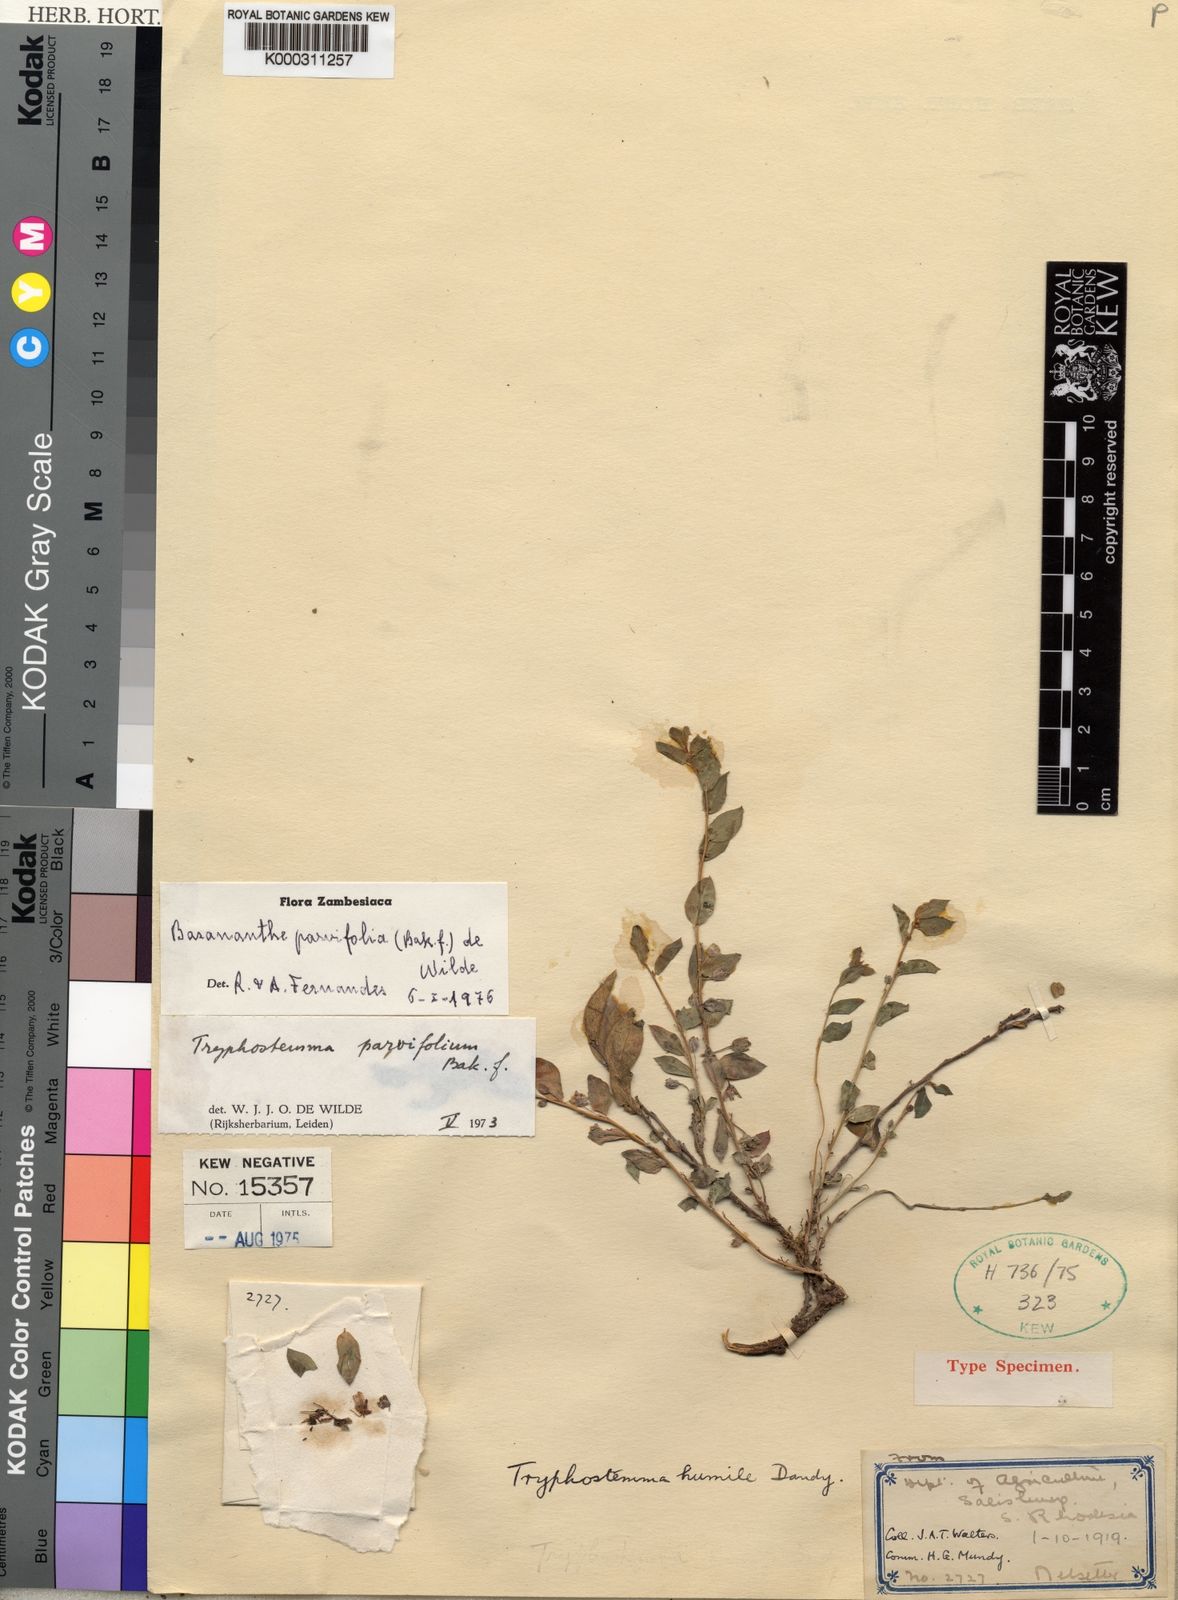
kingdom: Plantae
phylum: Tracheophyta
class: Magnoliopsida
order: Malpighiales
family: Passifloraceae
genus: Basananthe
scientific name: Basananthe parvifolia
